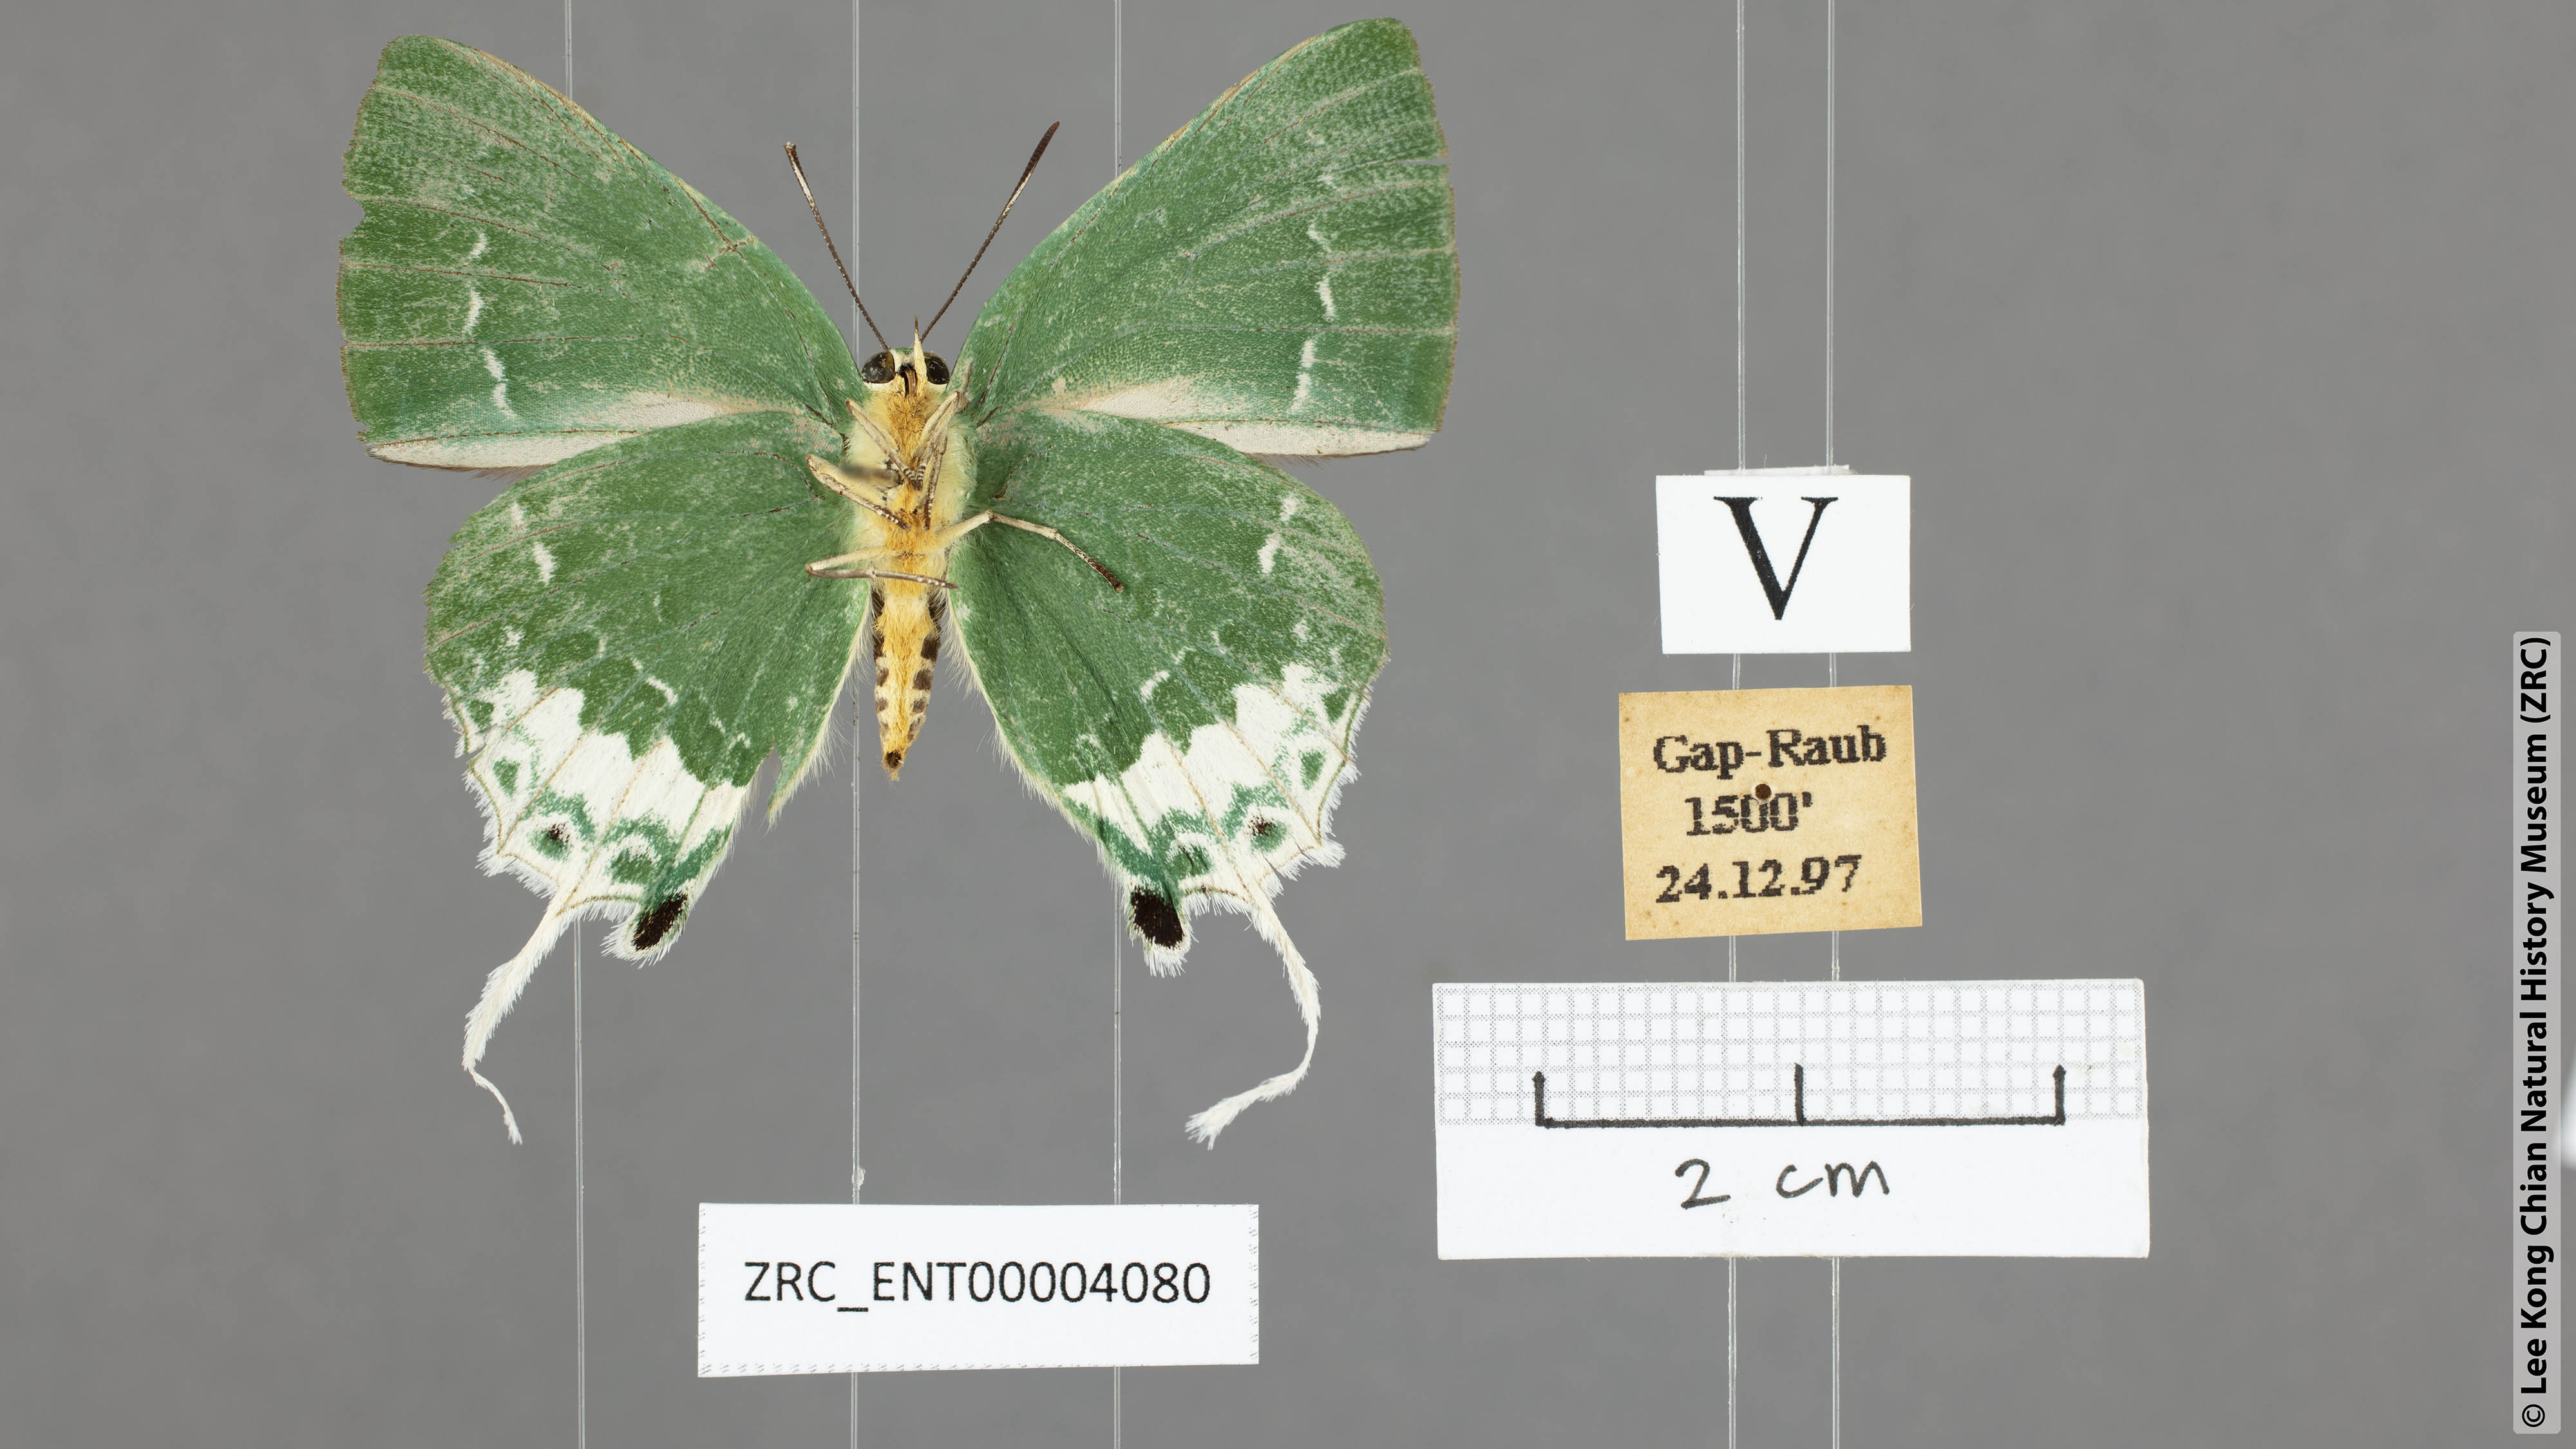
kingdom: Animalia
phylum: Arthropoda
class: Insecta
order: Lepidoptera
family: Lycaenidae
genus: Artipe
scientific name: Artipe eryx
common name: Green flash
